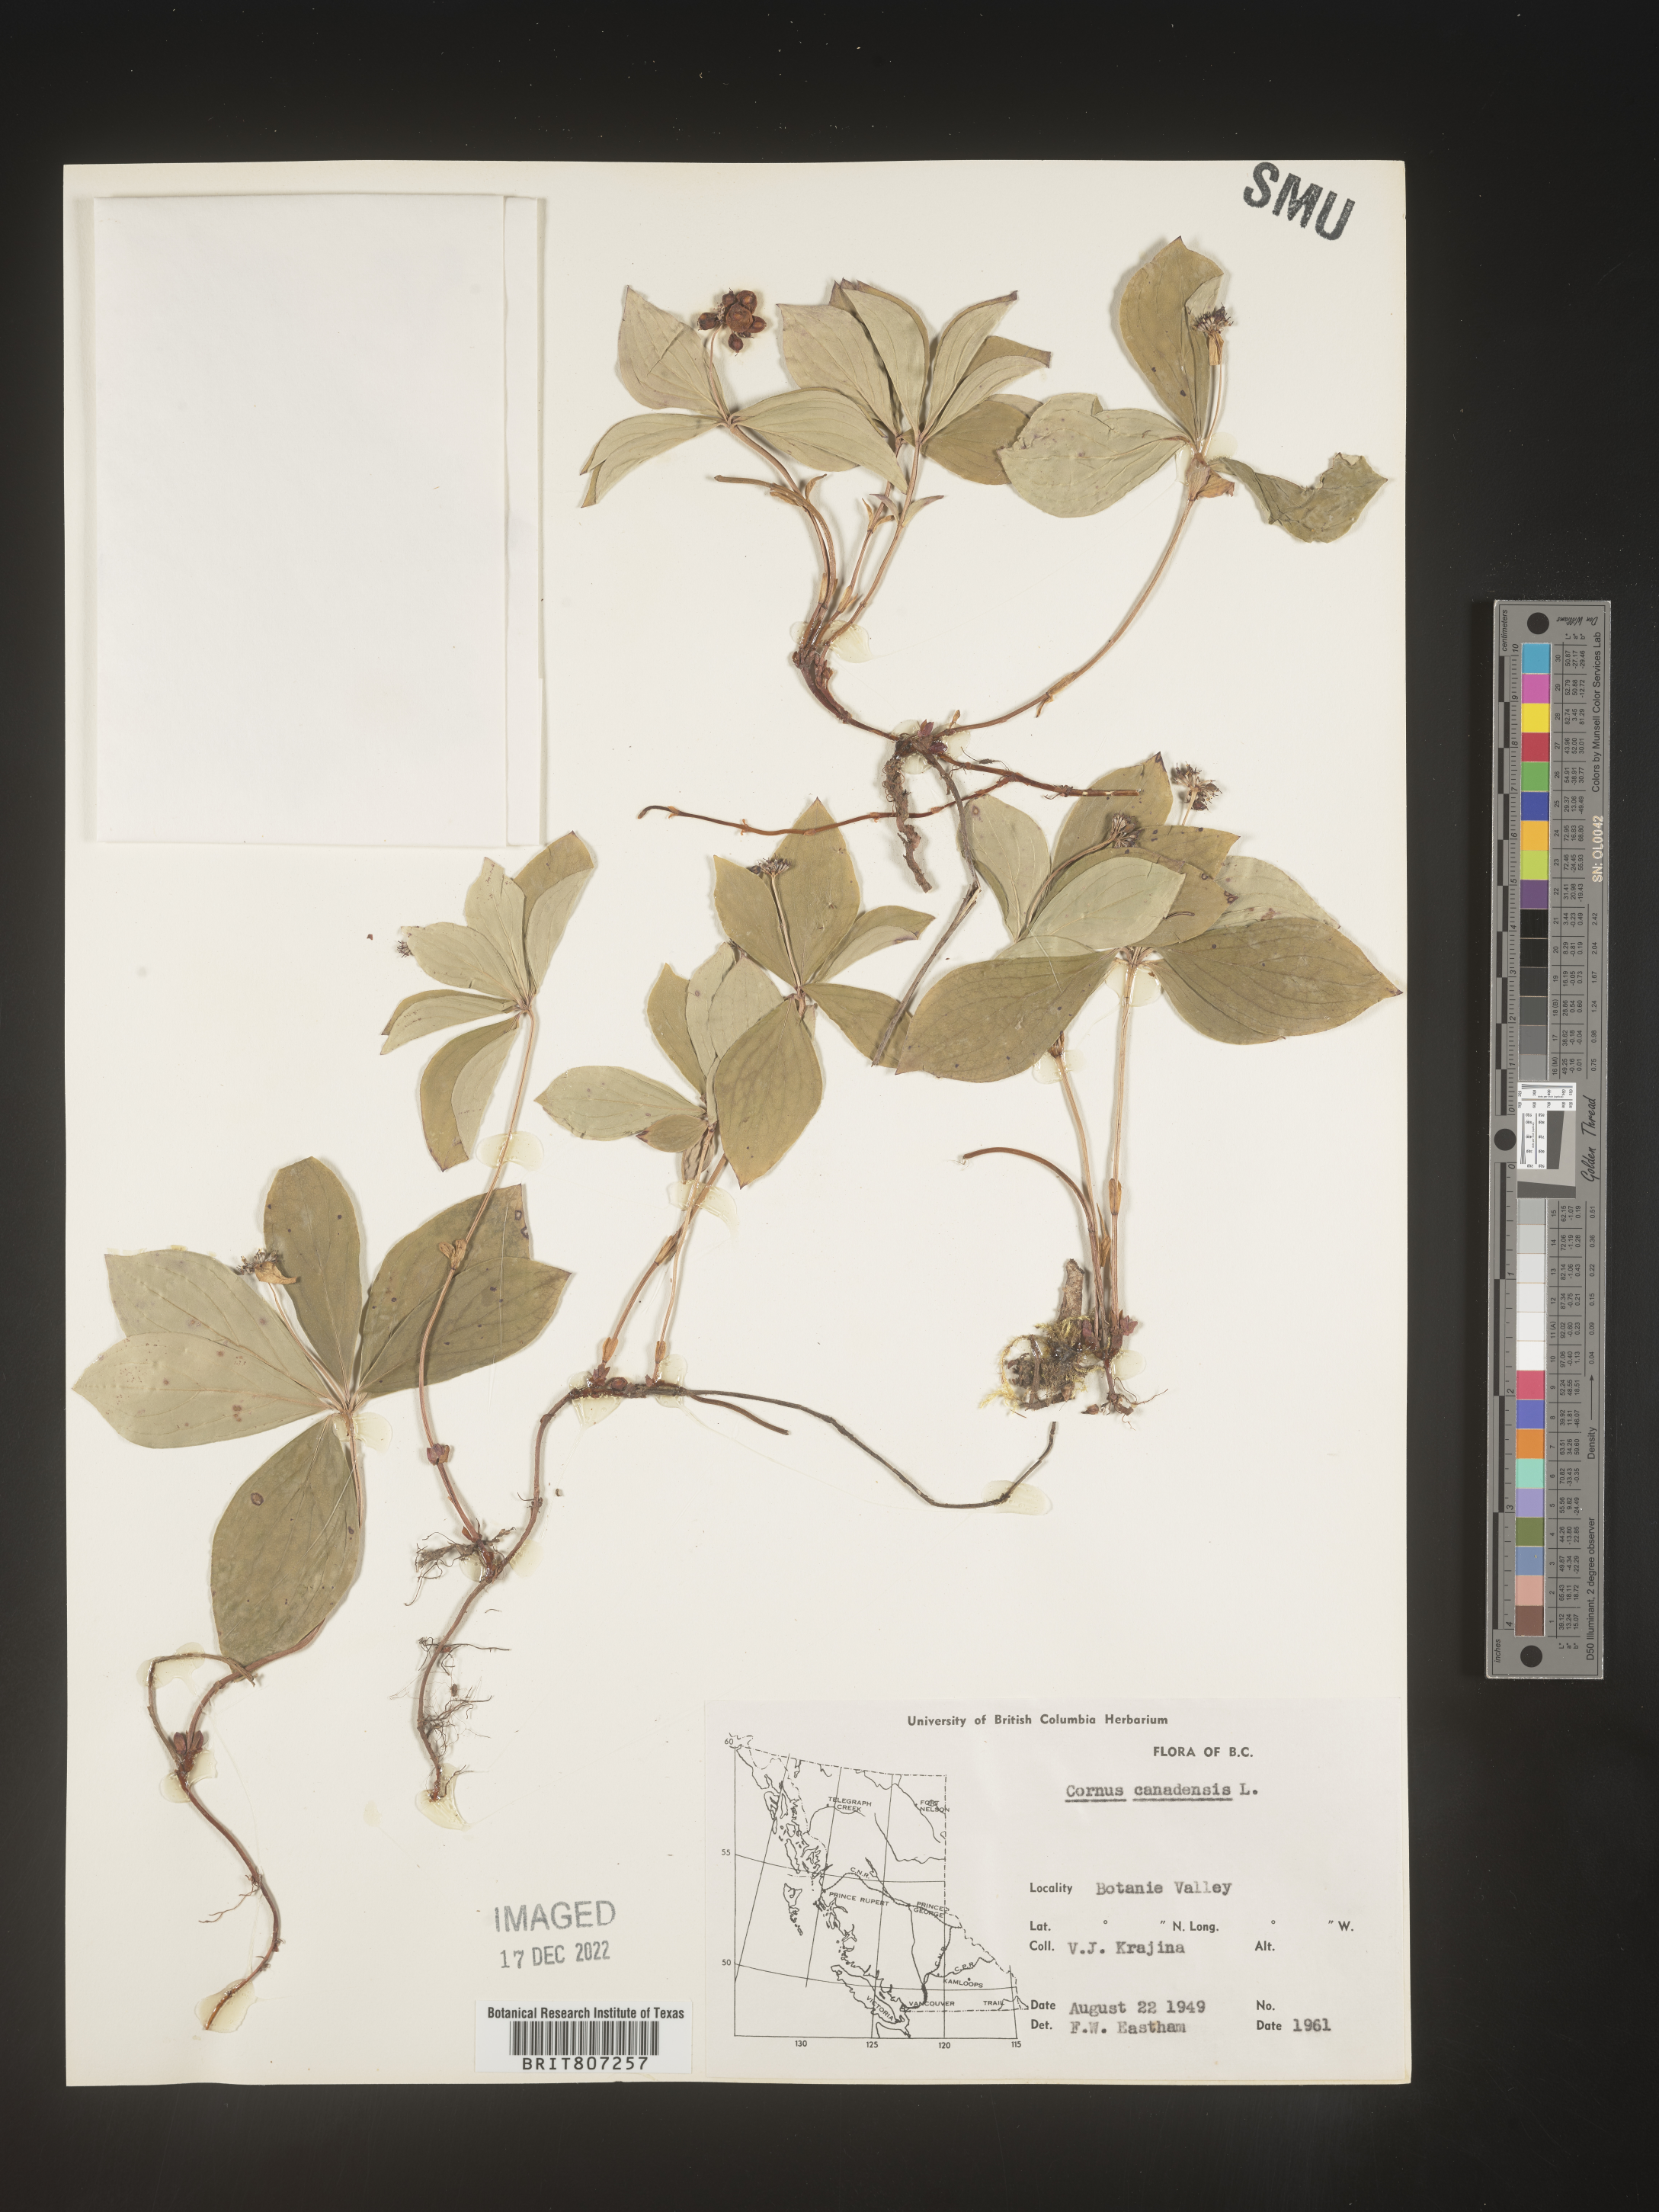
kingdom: Plantae
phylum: Tracheophyta
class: Magnoliopsida
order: Cornales
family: Cornaceae
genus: Cornus
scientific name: Cornus canadensis
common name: Creeping dogwood
